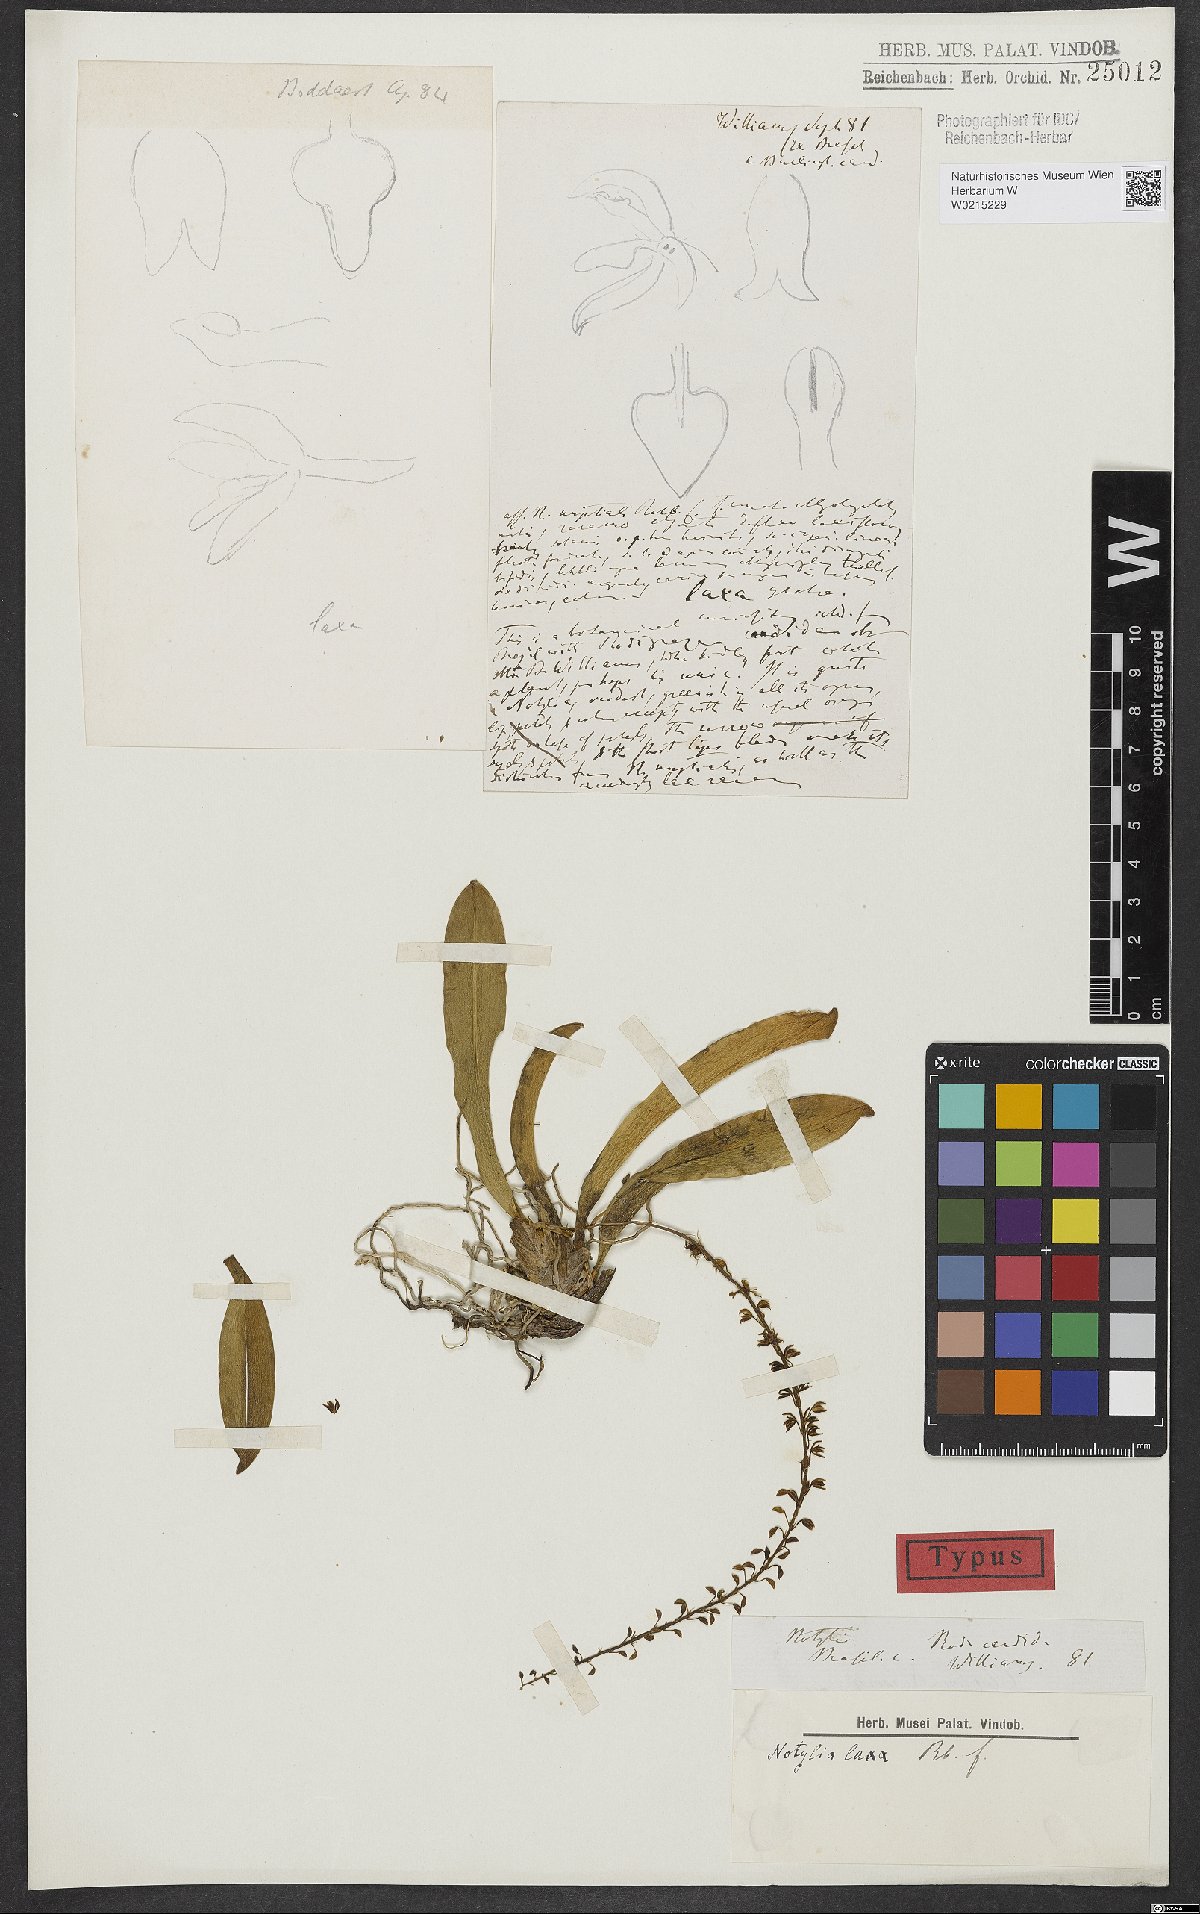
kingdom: Plantae
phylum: Tracheophyta
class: Liliopsida
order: Asparagales
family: Orchidaceae
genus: Notylia
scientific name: Notylia laxa
